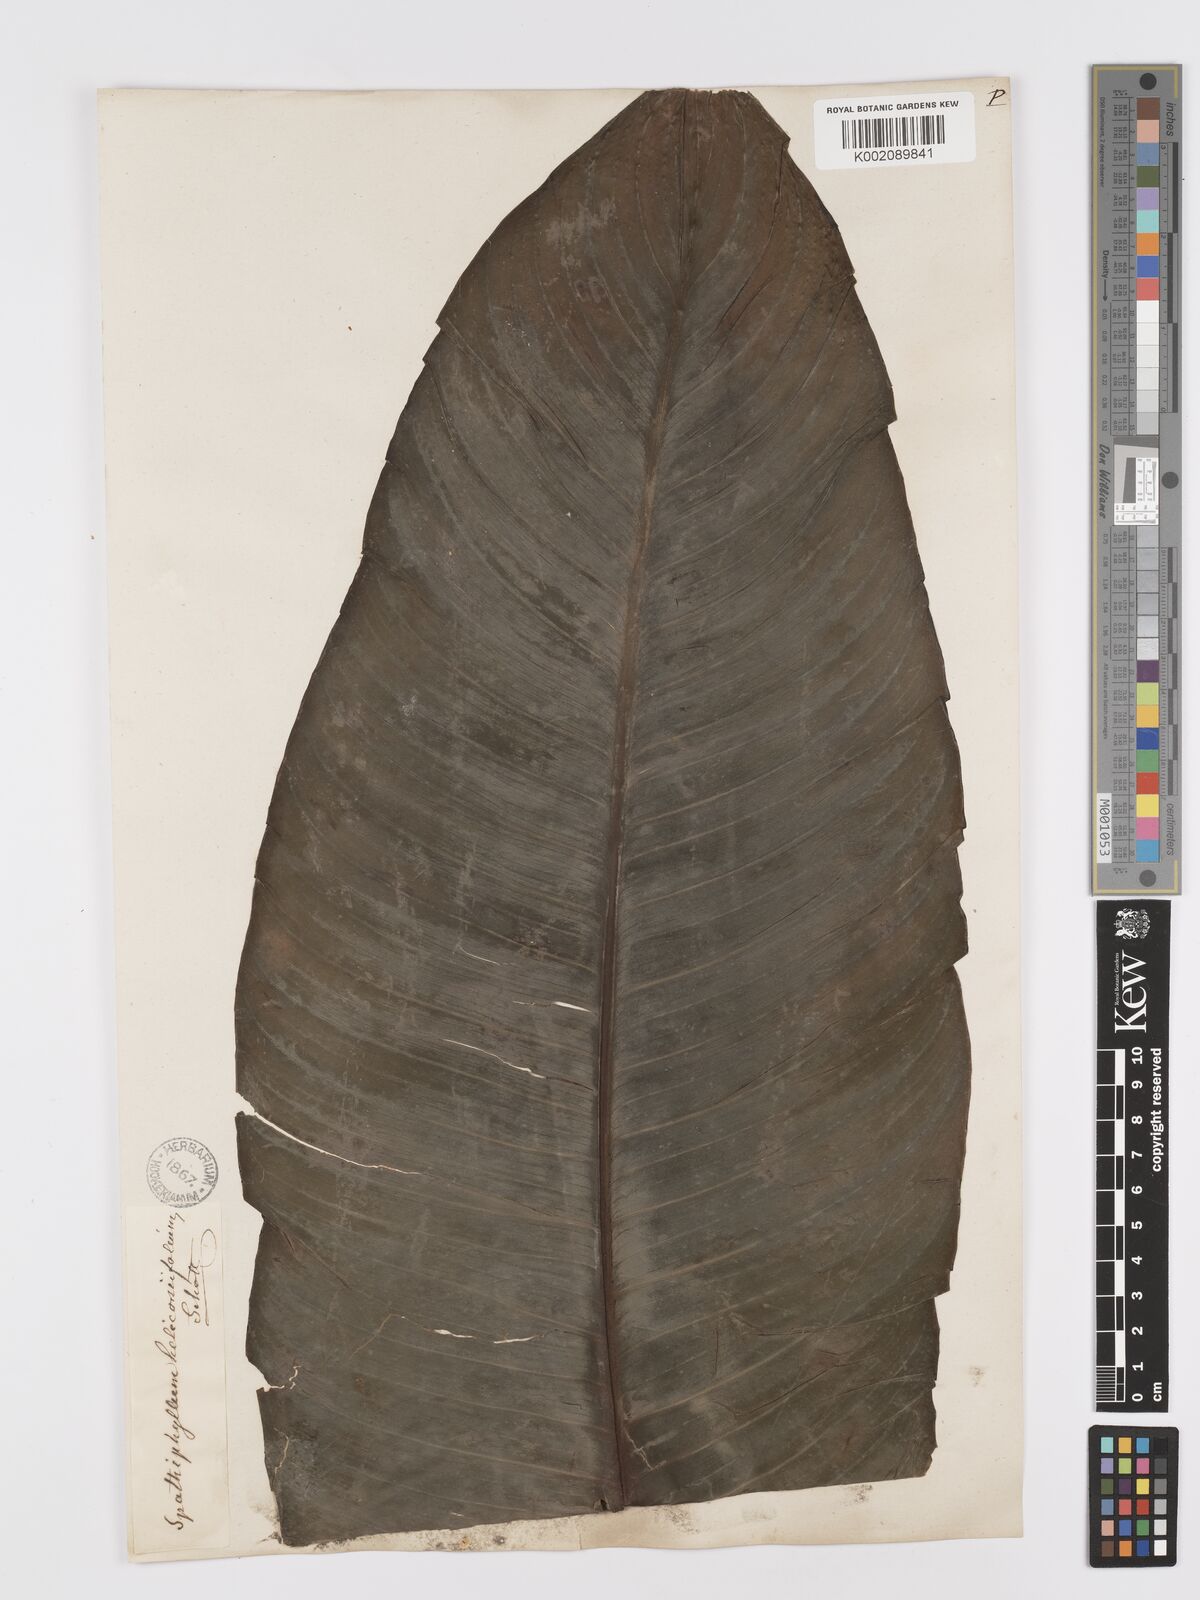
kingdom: Plantae
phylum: Tracheophyta
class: Liliopsida
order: Alismatales
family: Araceae
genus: Spathiphyllum
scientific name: Spathiphyllum cochlearispathum
